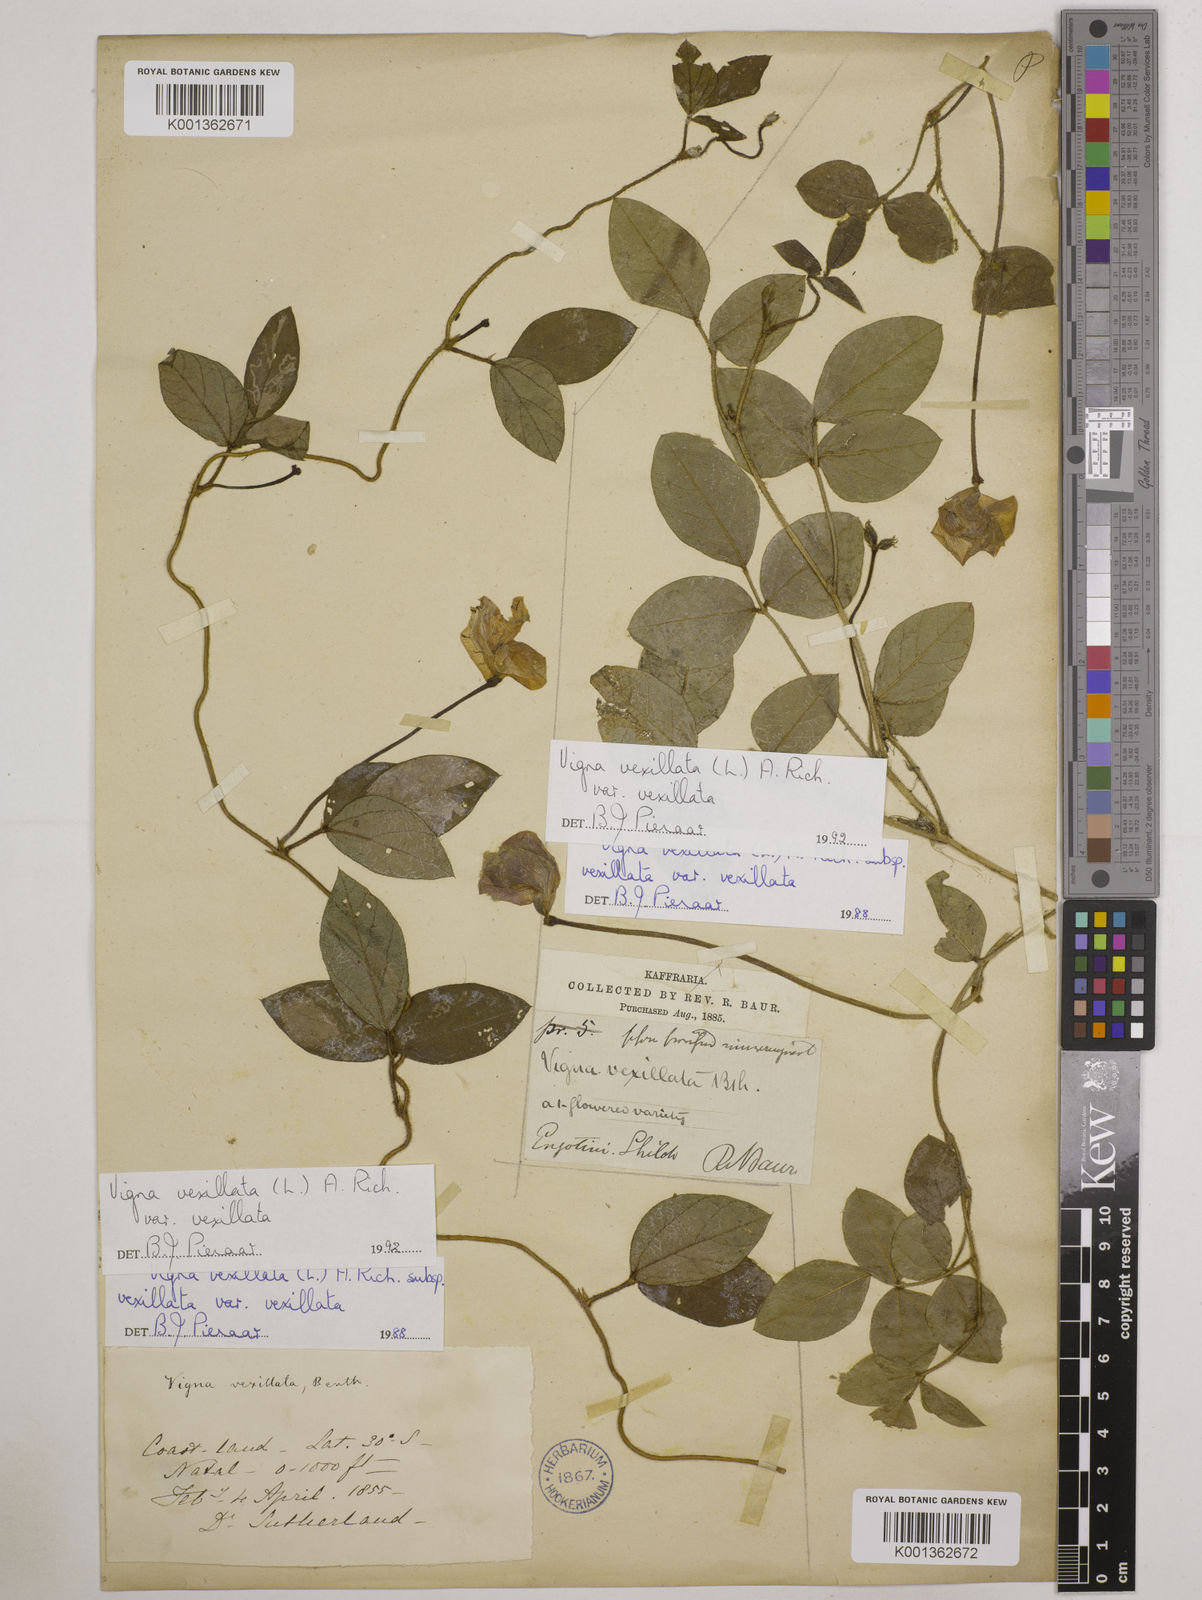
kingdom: Plantae
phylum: Tracheophyta
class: Magnoliopsida
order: Fabales
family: Fabaceae
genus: Vigna
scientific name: Vigna
